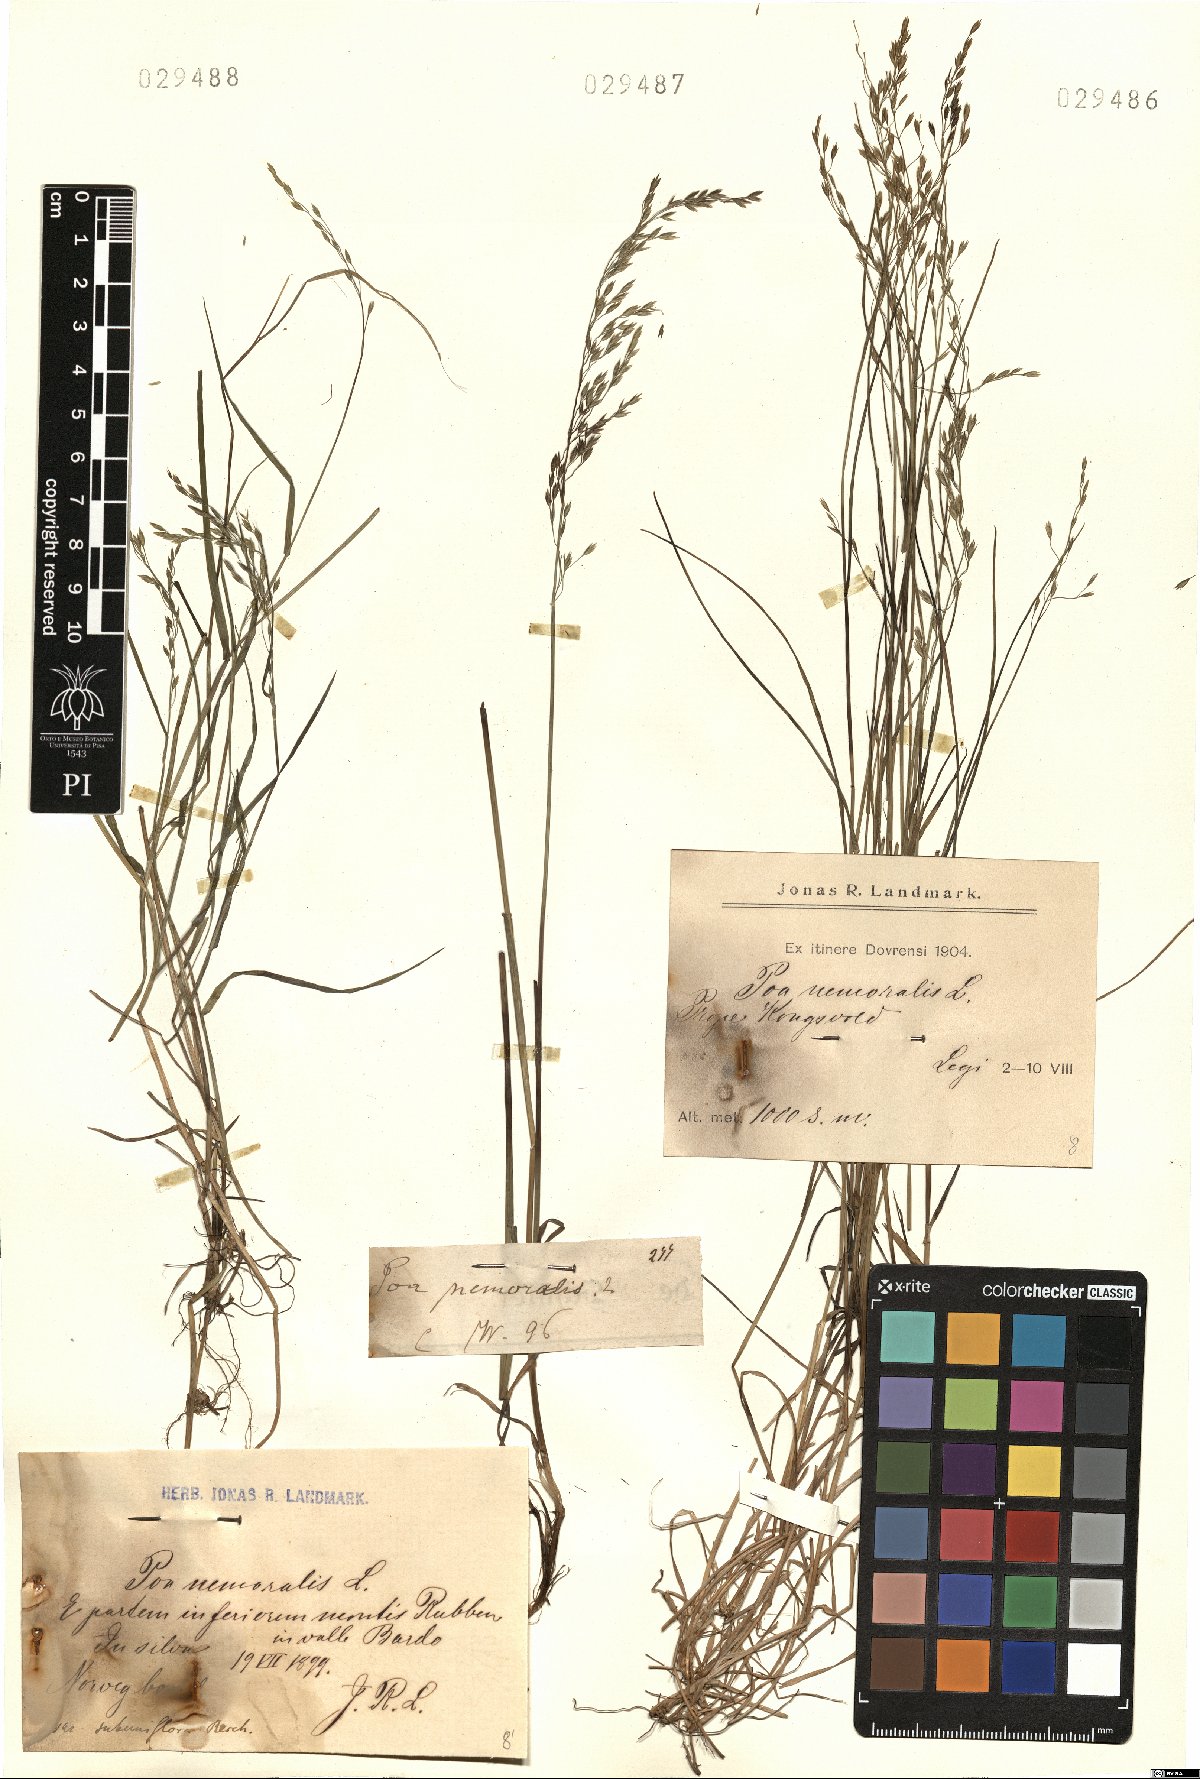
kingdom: Plantae
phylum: Tracheophyta
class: Liliopsida
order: Poales
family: Poaceae
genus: Poa
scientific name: Poa nemoralis
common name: Wood bluegrass
